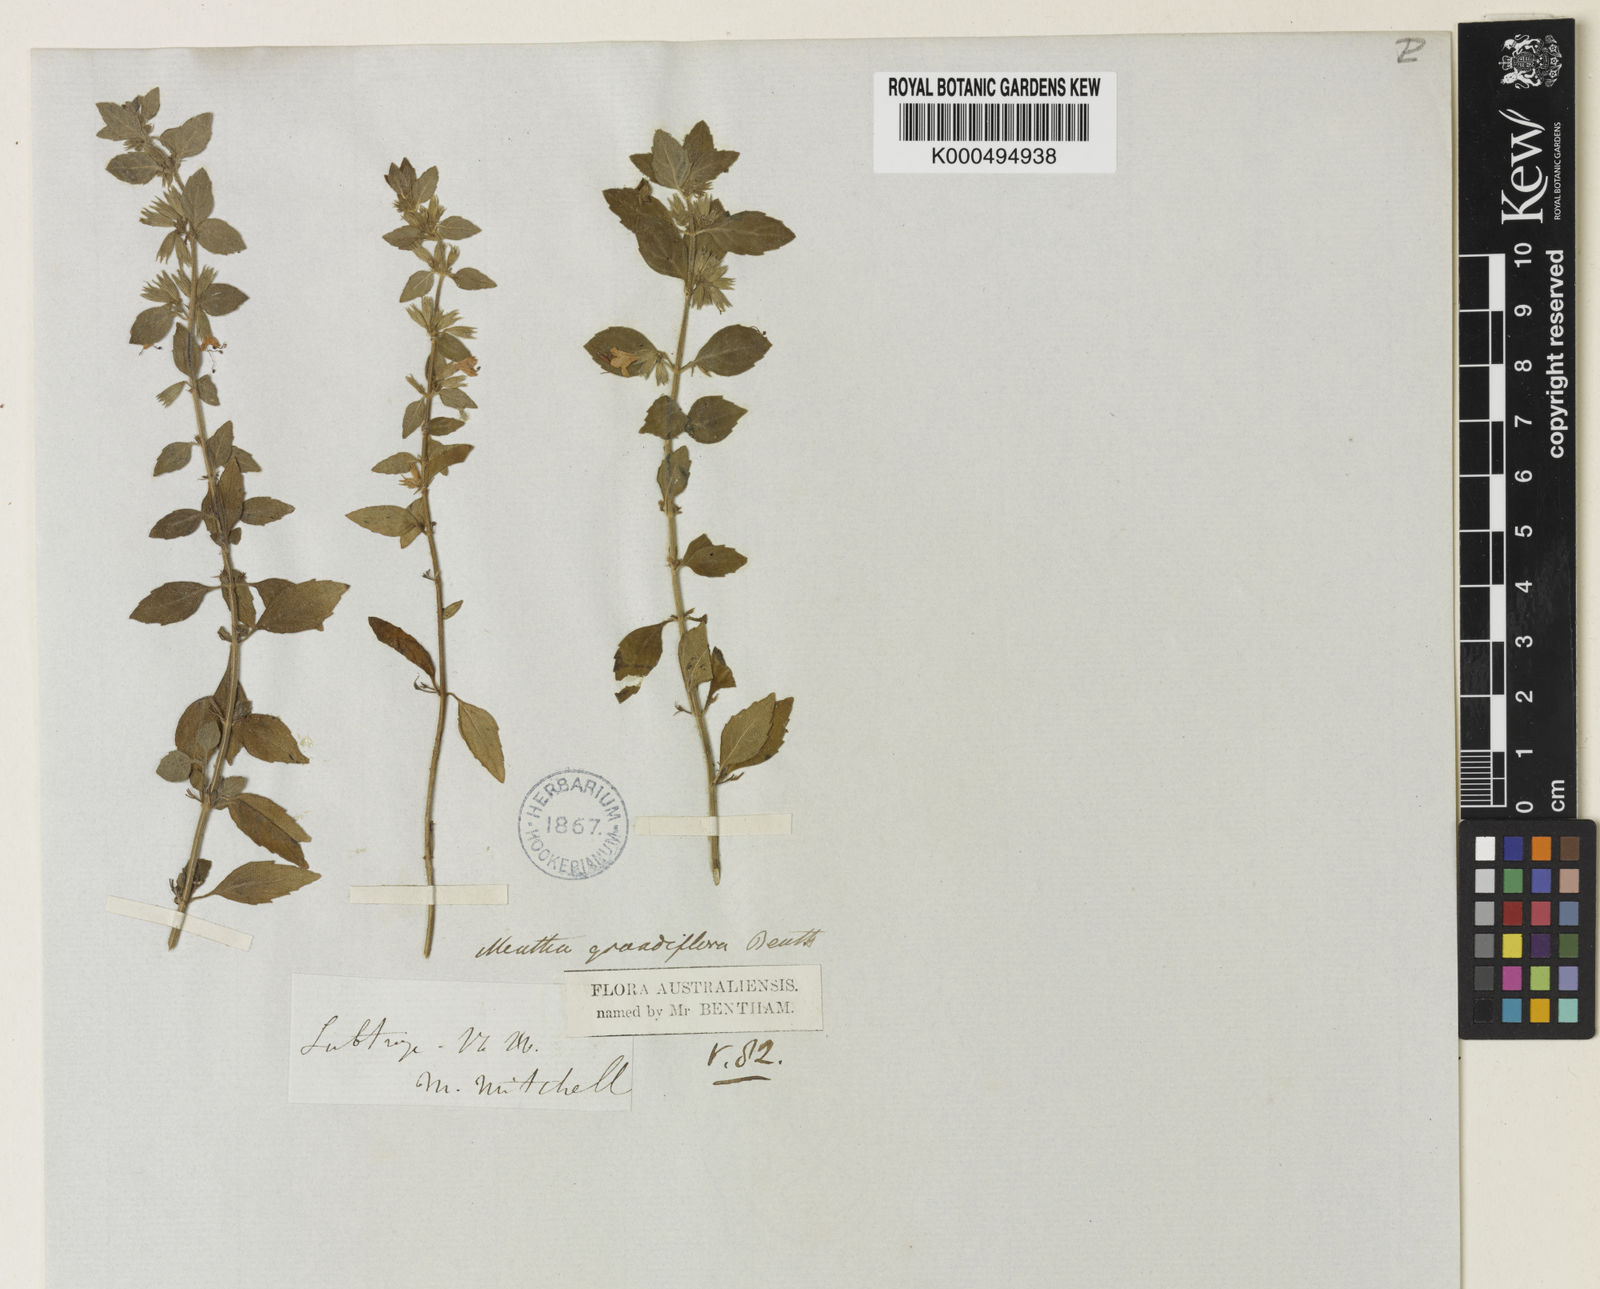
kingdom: Plantae
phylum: Tracheophyta
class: Magnoliopsida
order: Lamiales
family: Lamiaceae
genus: Mentha
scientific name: Mentha grandiflora
